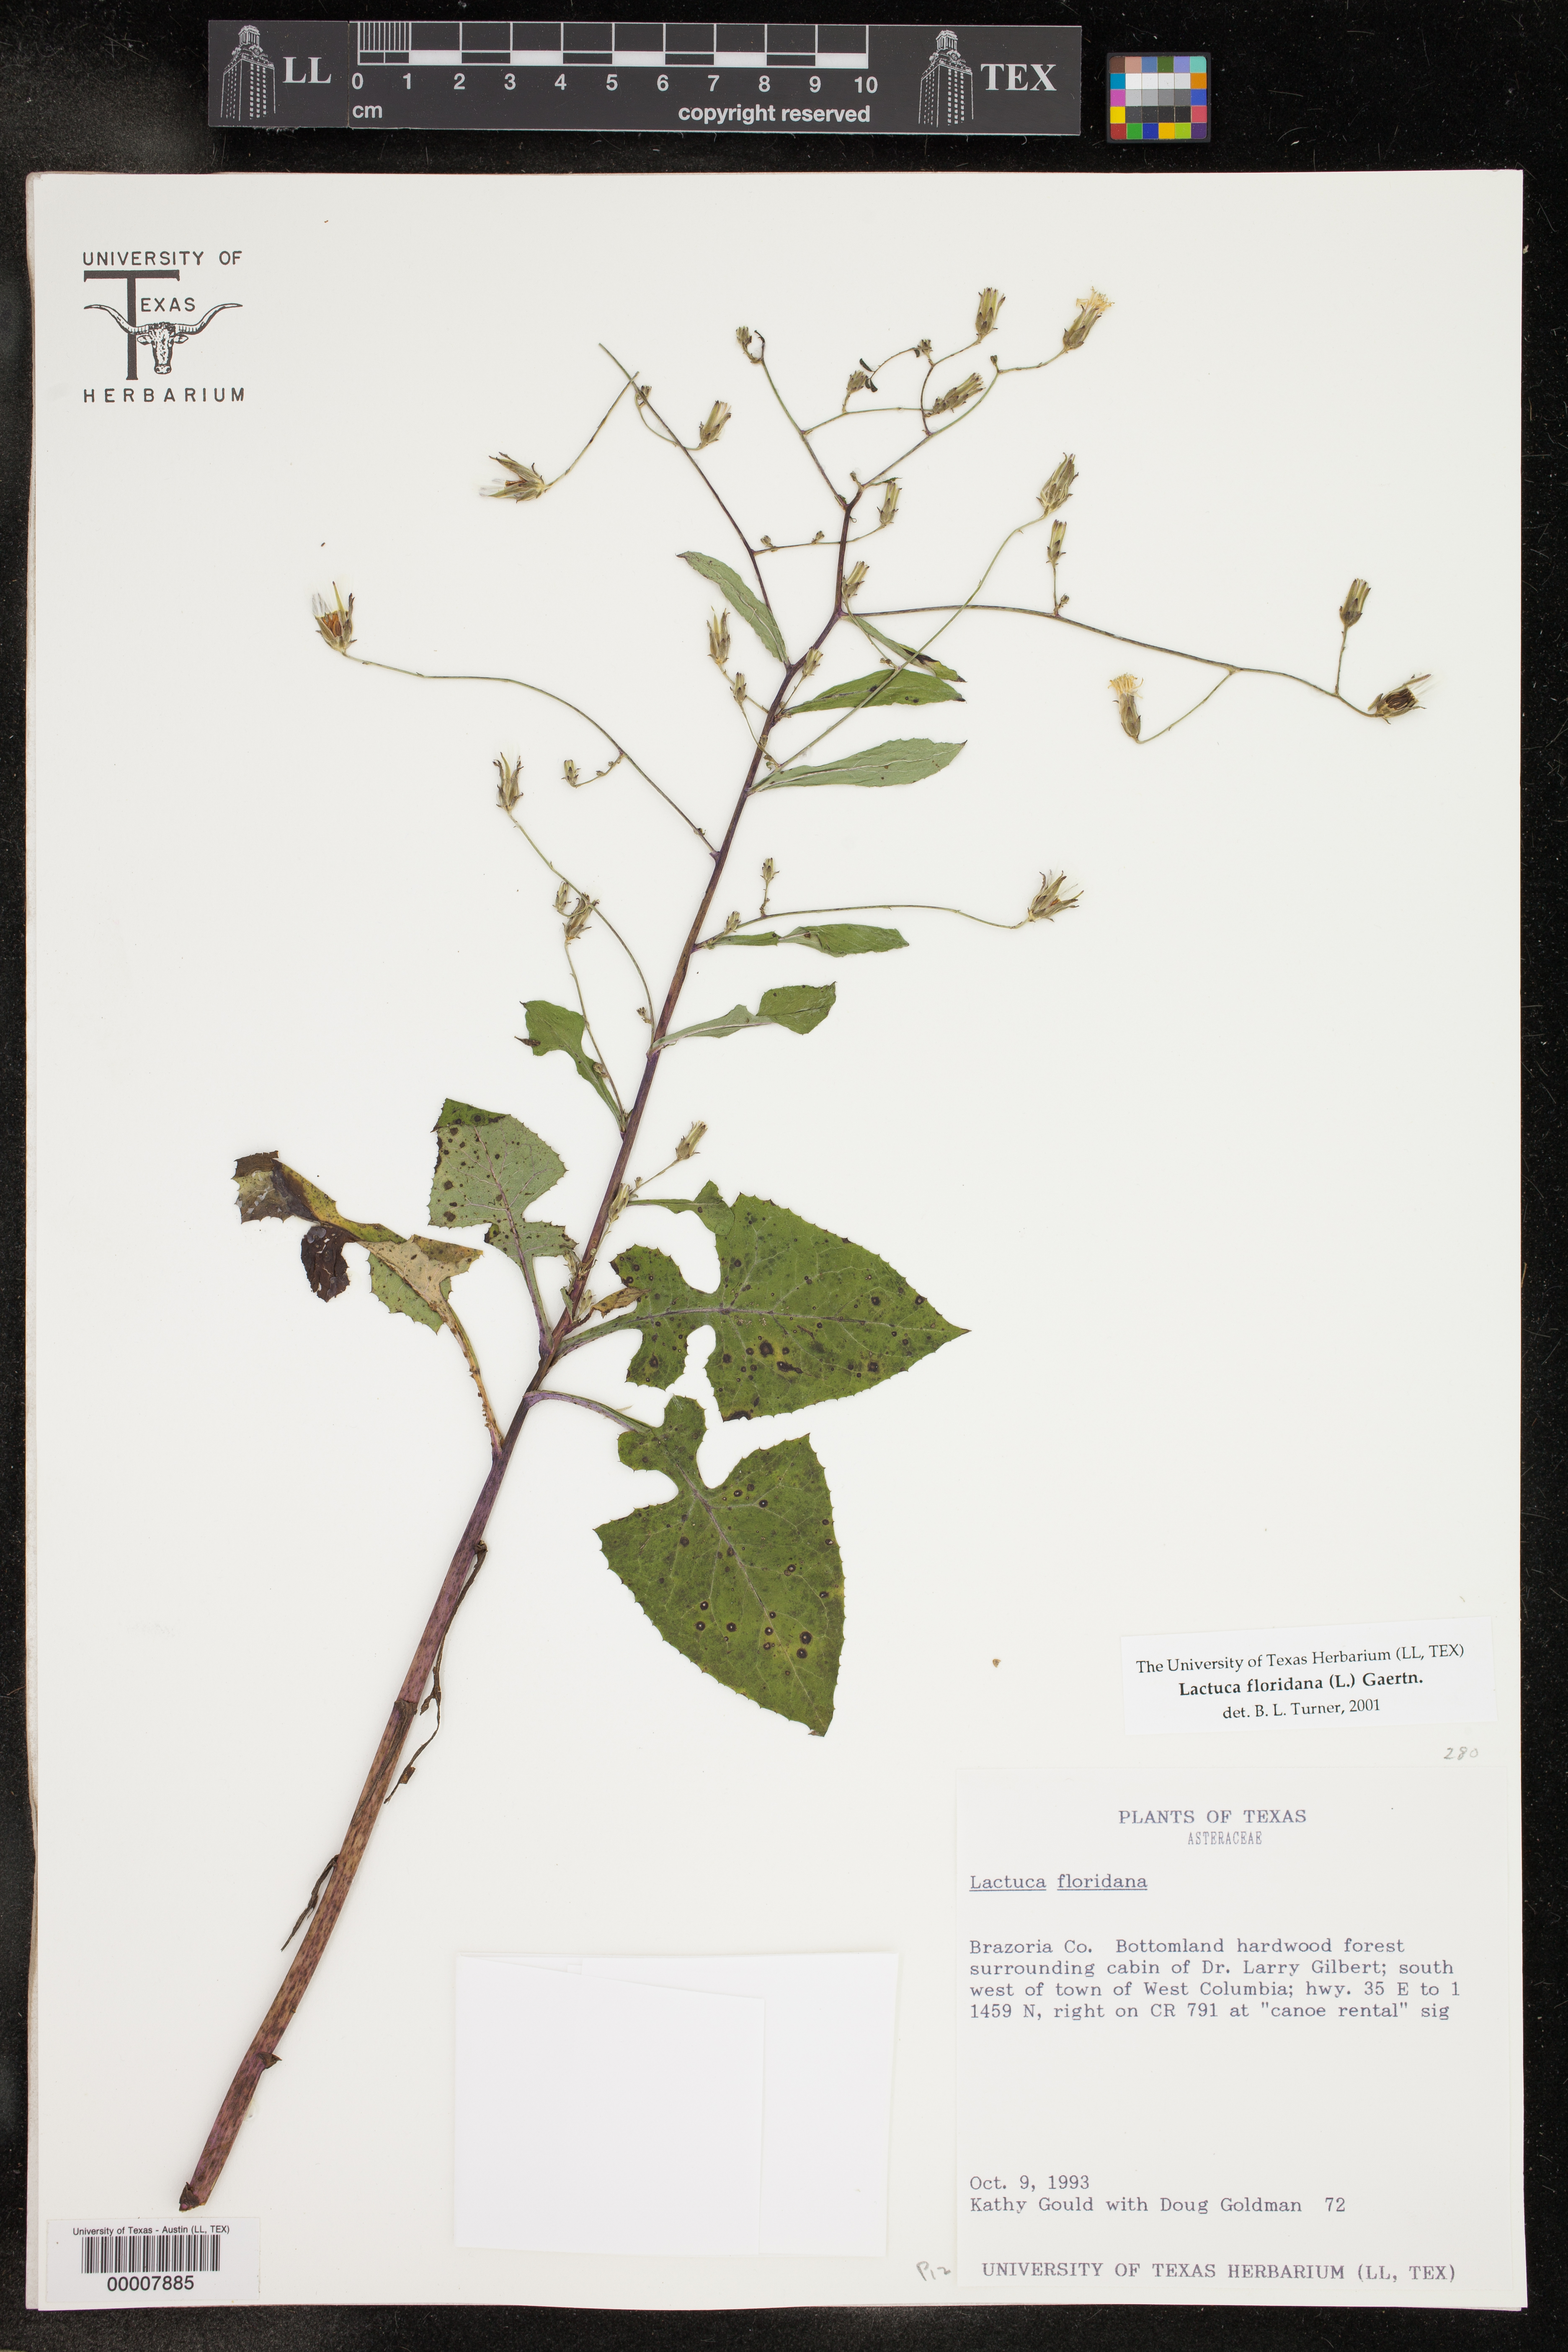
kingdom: Plantae
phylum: Tracheophyta
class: Magnoliopsida
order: Asterales
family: Asteraceae
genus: Lactuca
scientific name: Lactuca floridana
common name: Woodland lettuce
